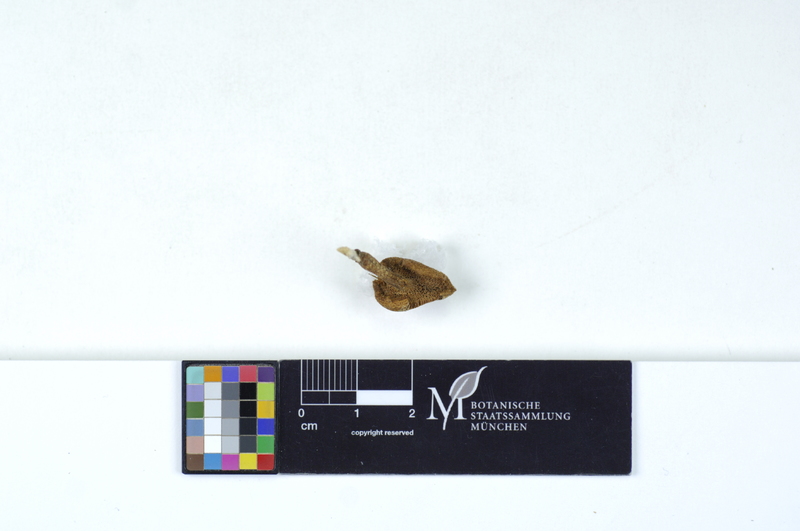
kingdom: Fungi
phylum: Basidiomycota
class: Agaricomycetes
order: Polyporales
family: Polyporaceae
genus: Lentinus
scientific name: Lentinus arcularius
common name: Spring polypore
